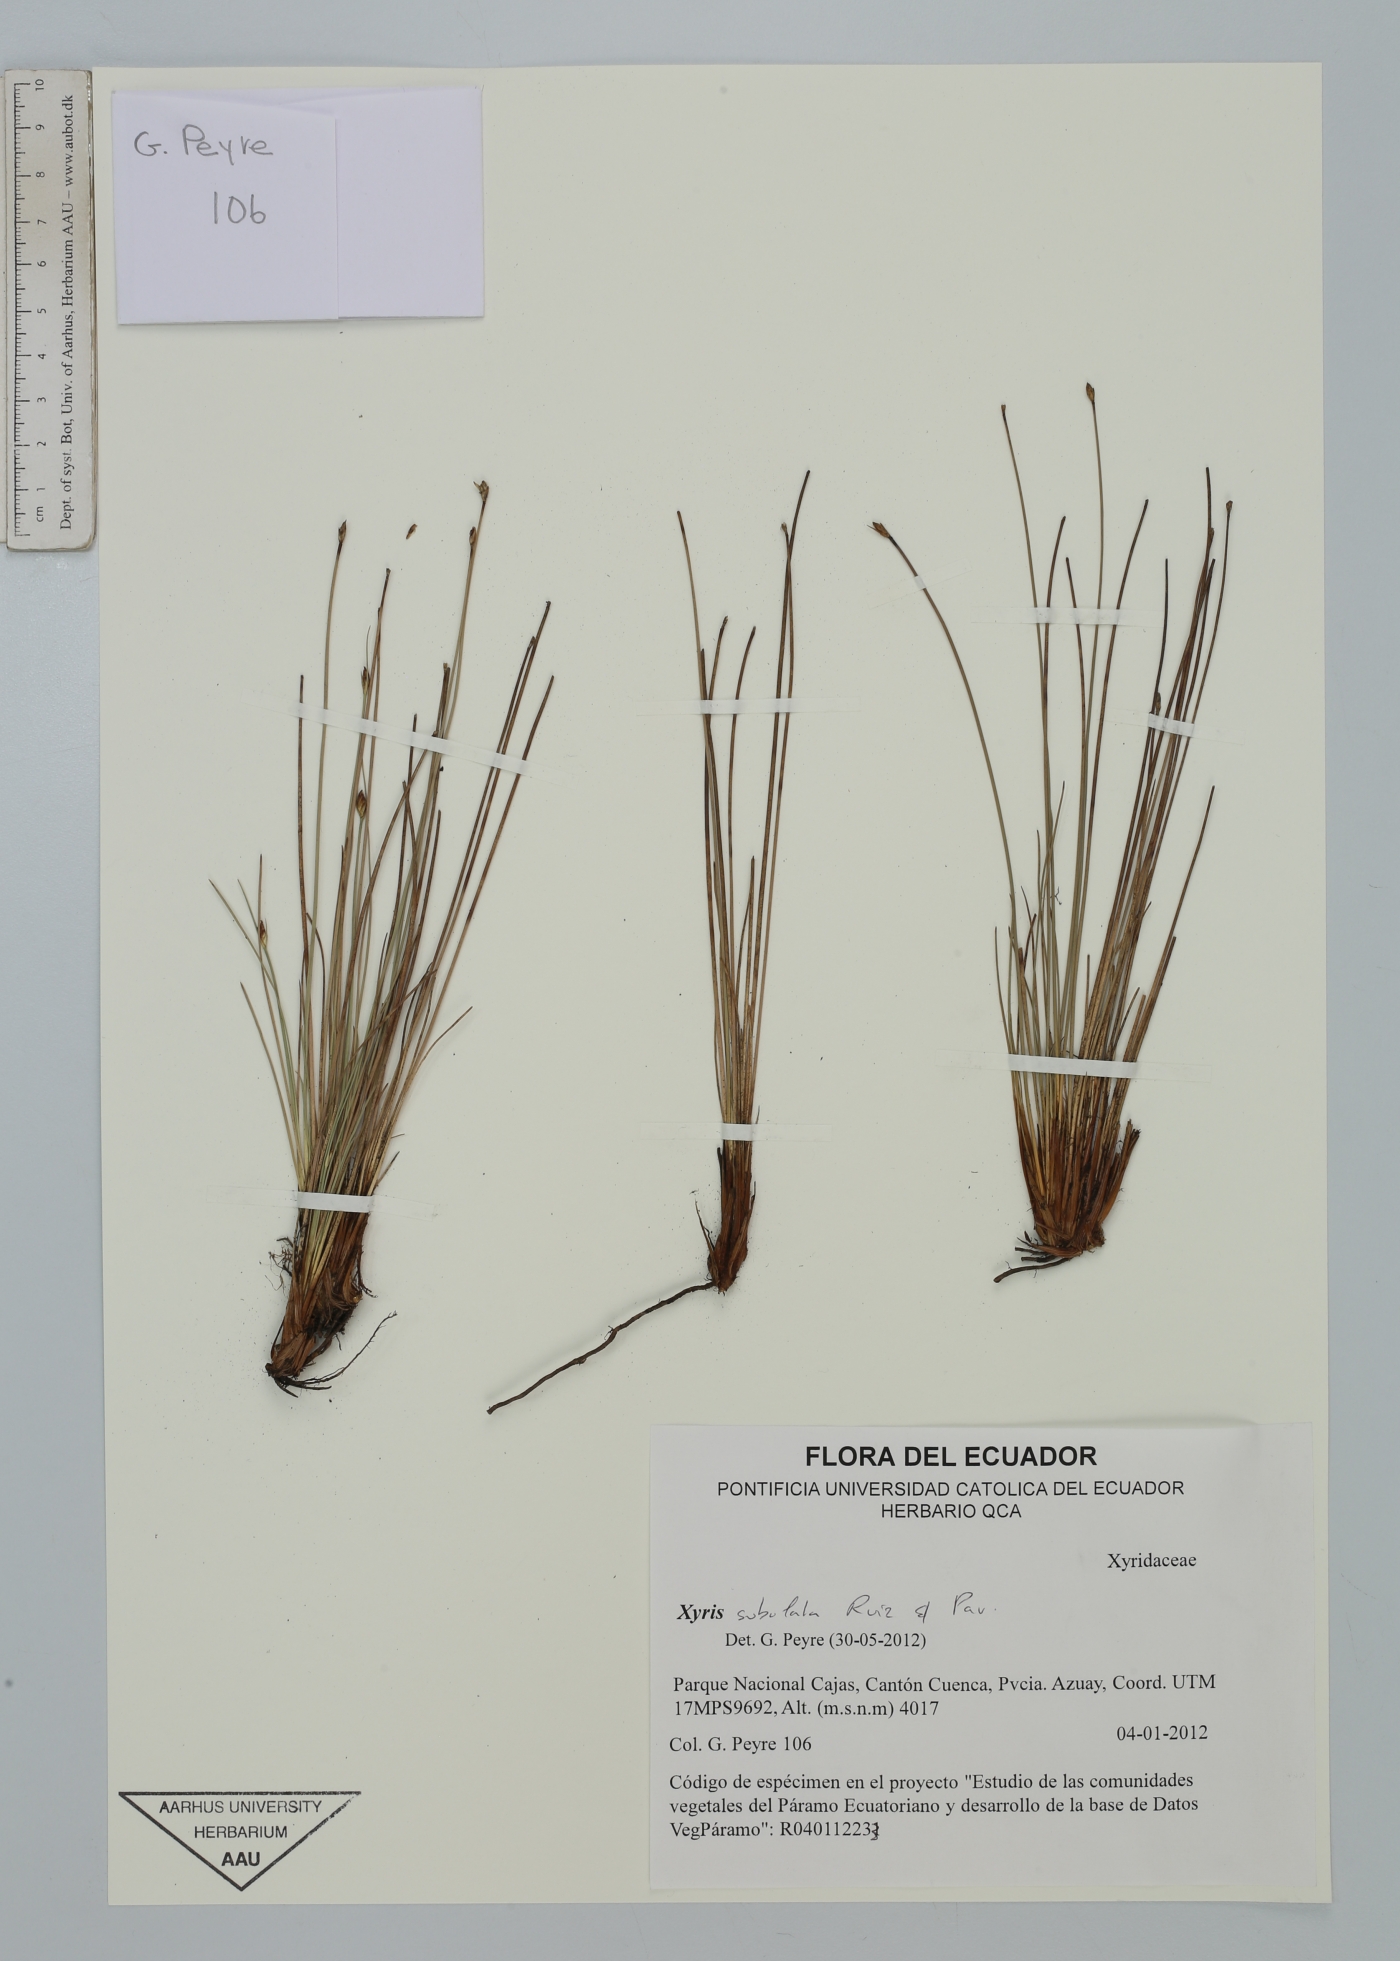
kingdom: Plantae
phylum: Tracheophyta
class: Liliopsida
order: Poales
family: Xyridaceae
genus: Xyris
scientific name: Xyris subulata
